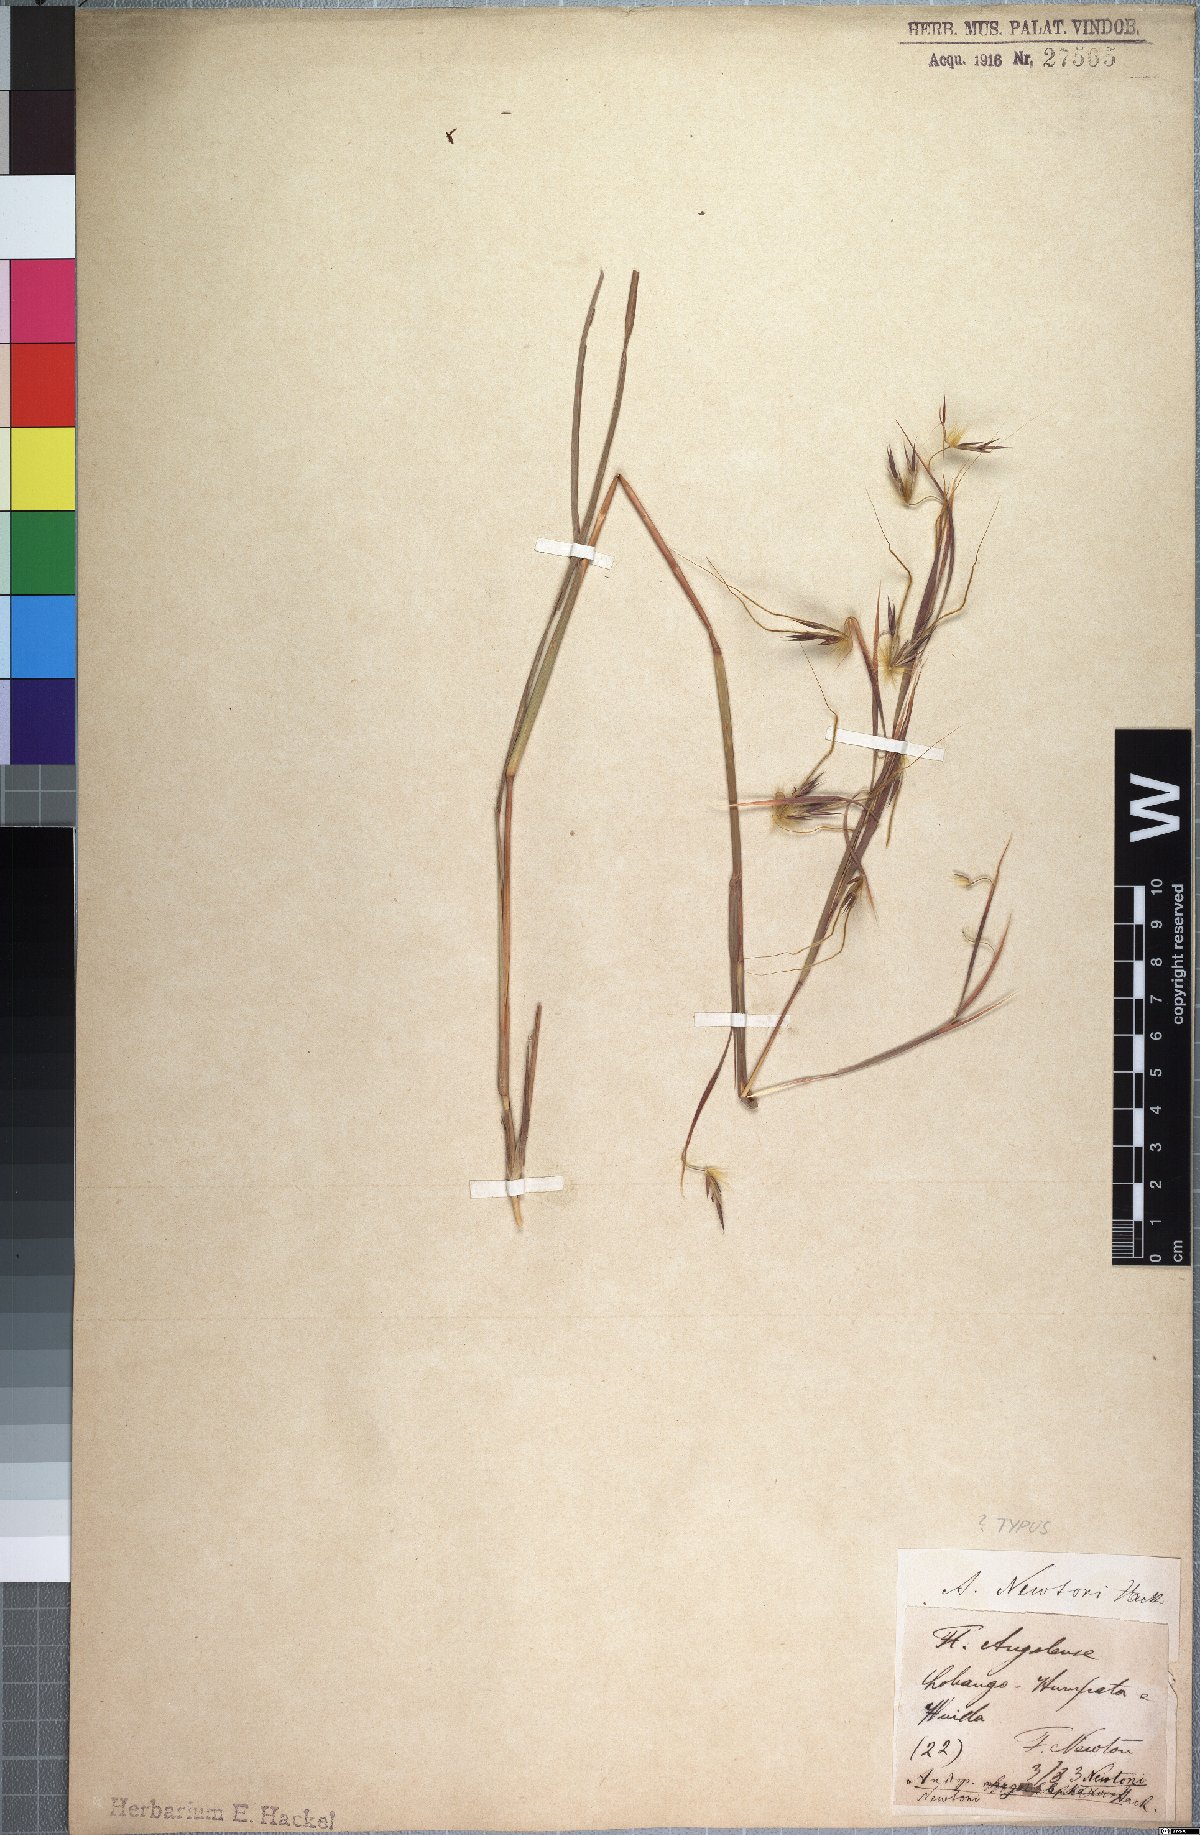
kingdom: Plantae
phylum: Tracheophyta
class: Liliopsida
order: Poales
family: Poaceae
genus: Hyparrhenia
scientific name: Hyparrhenia newtonii
